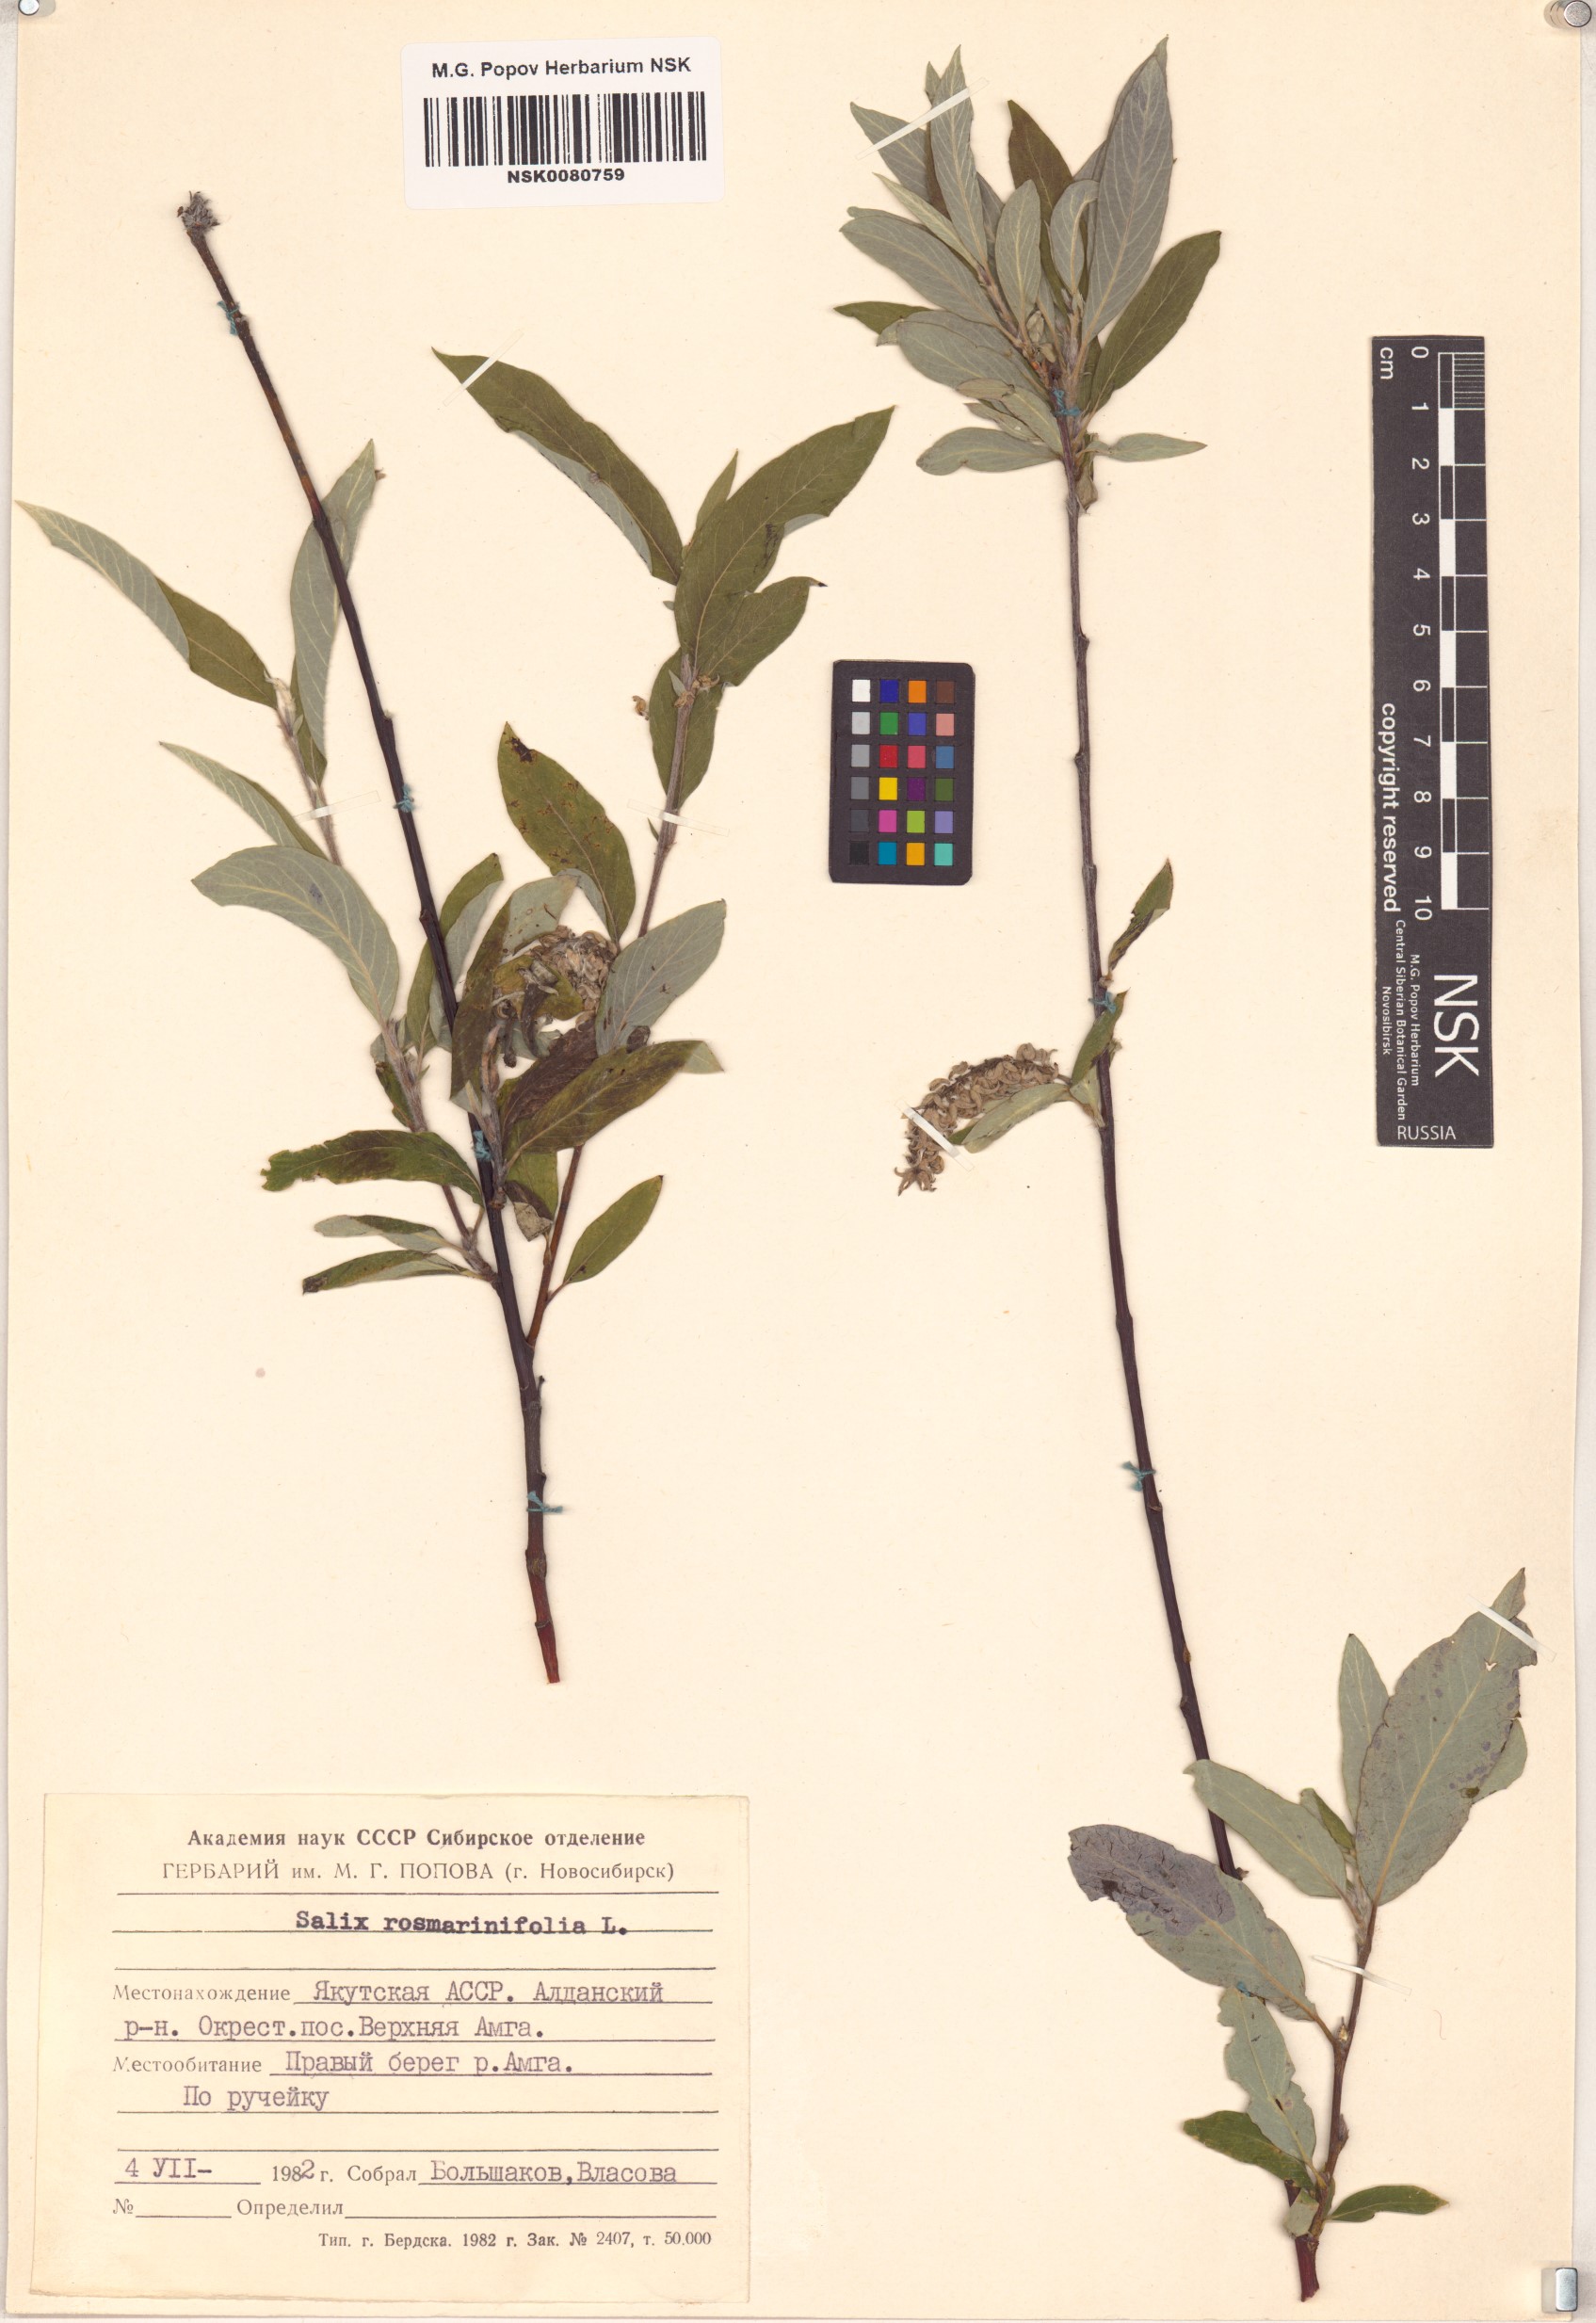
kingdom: Plantae
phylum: Tracheophyta
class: Magnoliopsida
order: Malpighiales
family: Salicaceae
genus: Salix
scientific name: Salix rosmarinifolia
